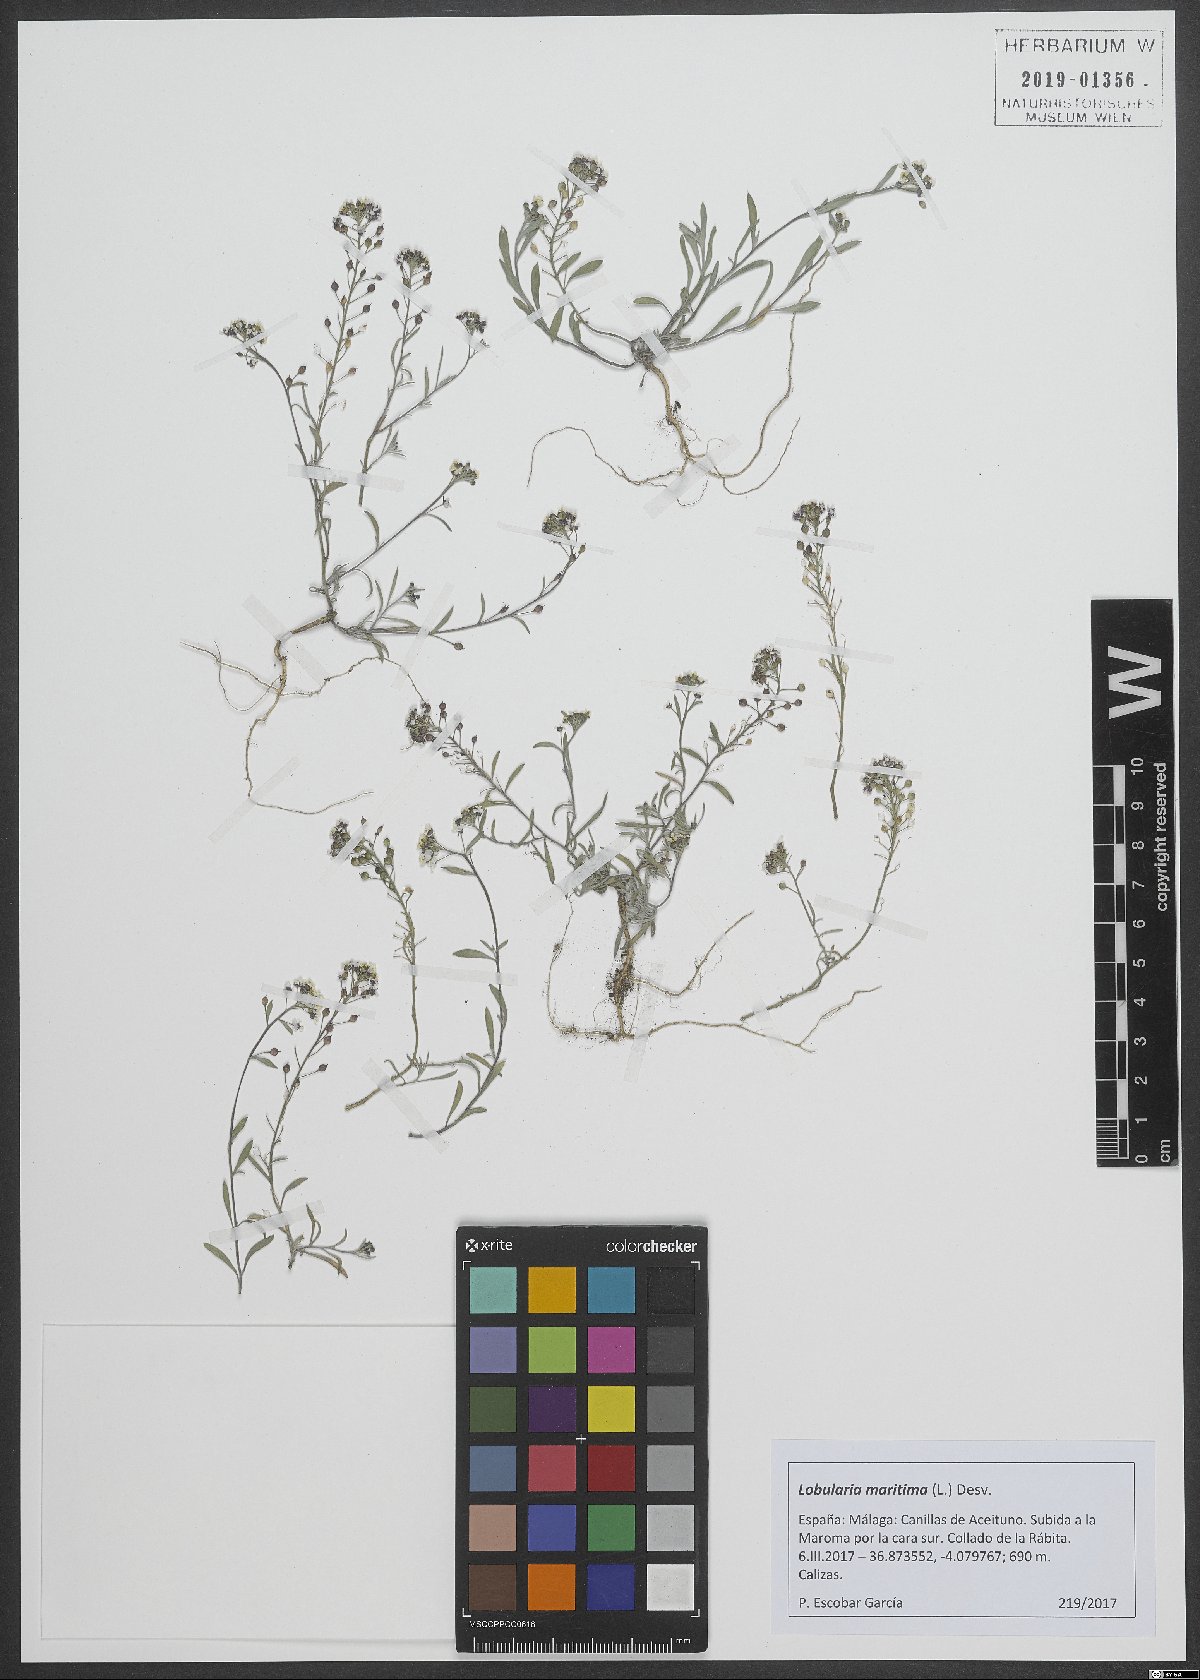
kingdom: Plantae
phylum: Tracheophyta
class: Magnoliopsida
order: Brassicales
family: Brassicaceae
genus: Lobularia
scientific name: Lobularia maritima
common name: Sweet alison
